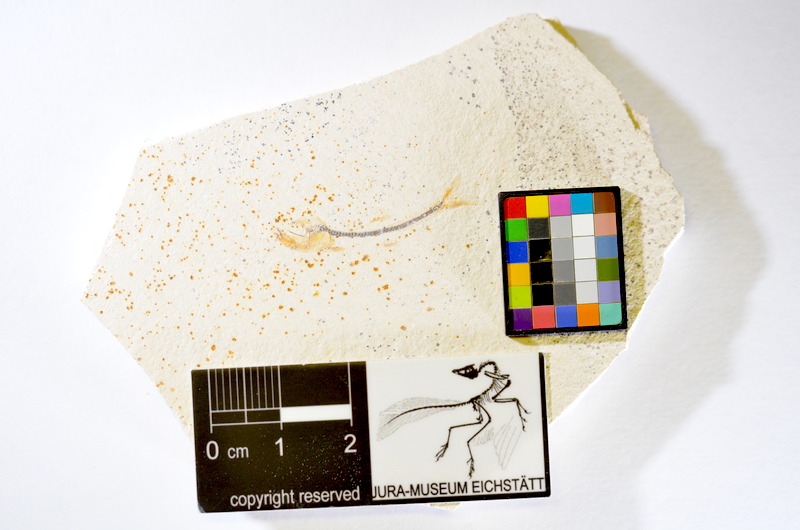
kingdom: Animalia
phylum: Chordata
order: Salmoniformes
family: Orthogonikleithridae
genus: Orthogonikleithrus
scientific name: Orthogonikleithrus hoelli
